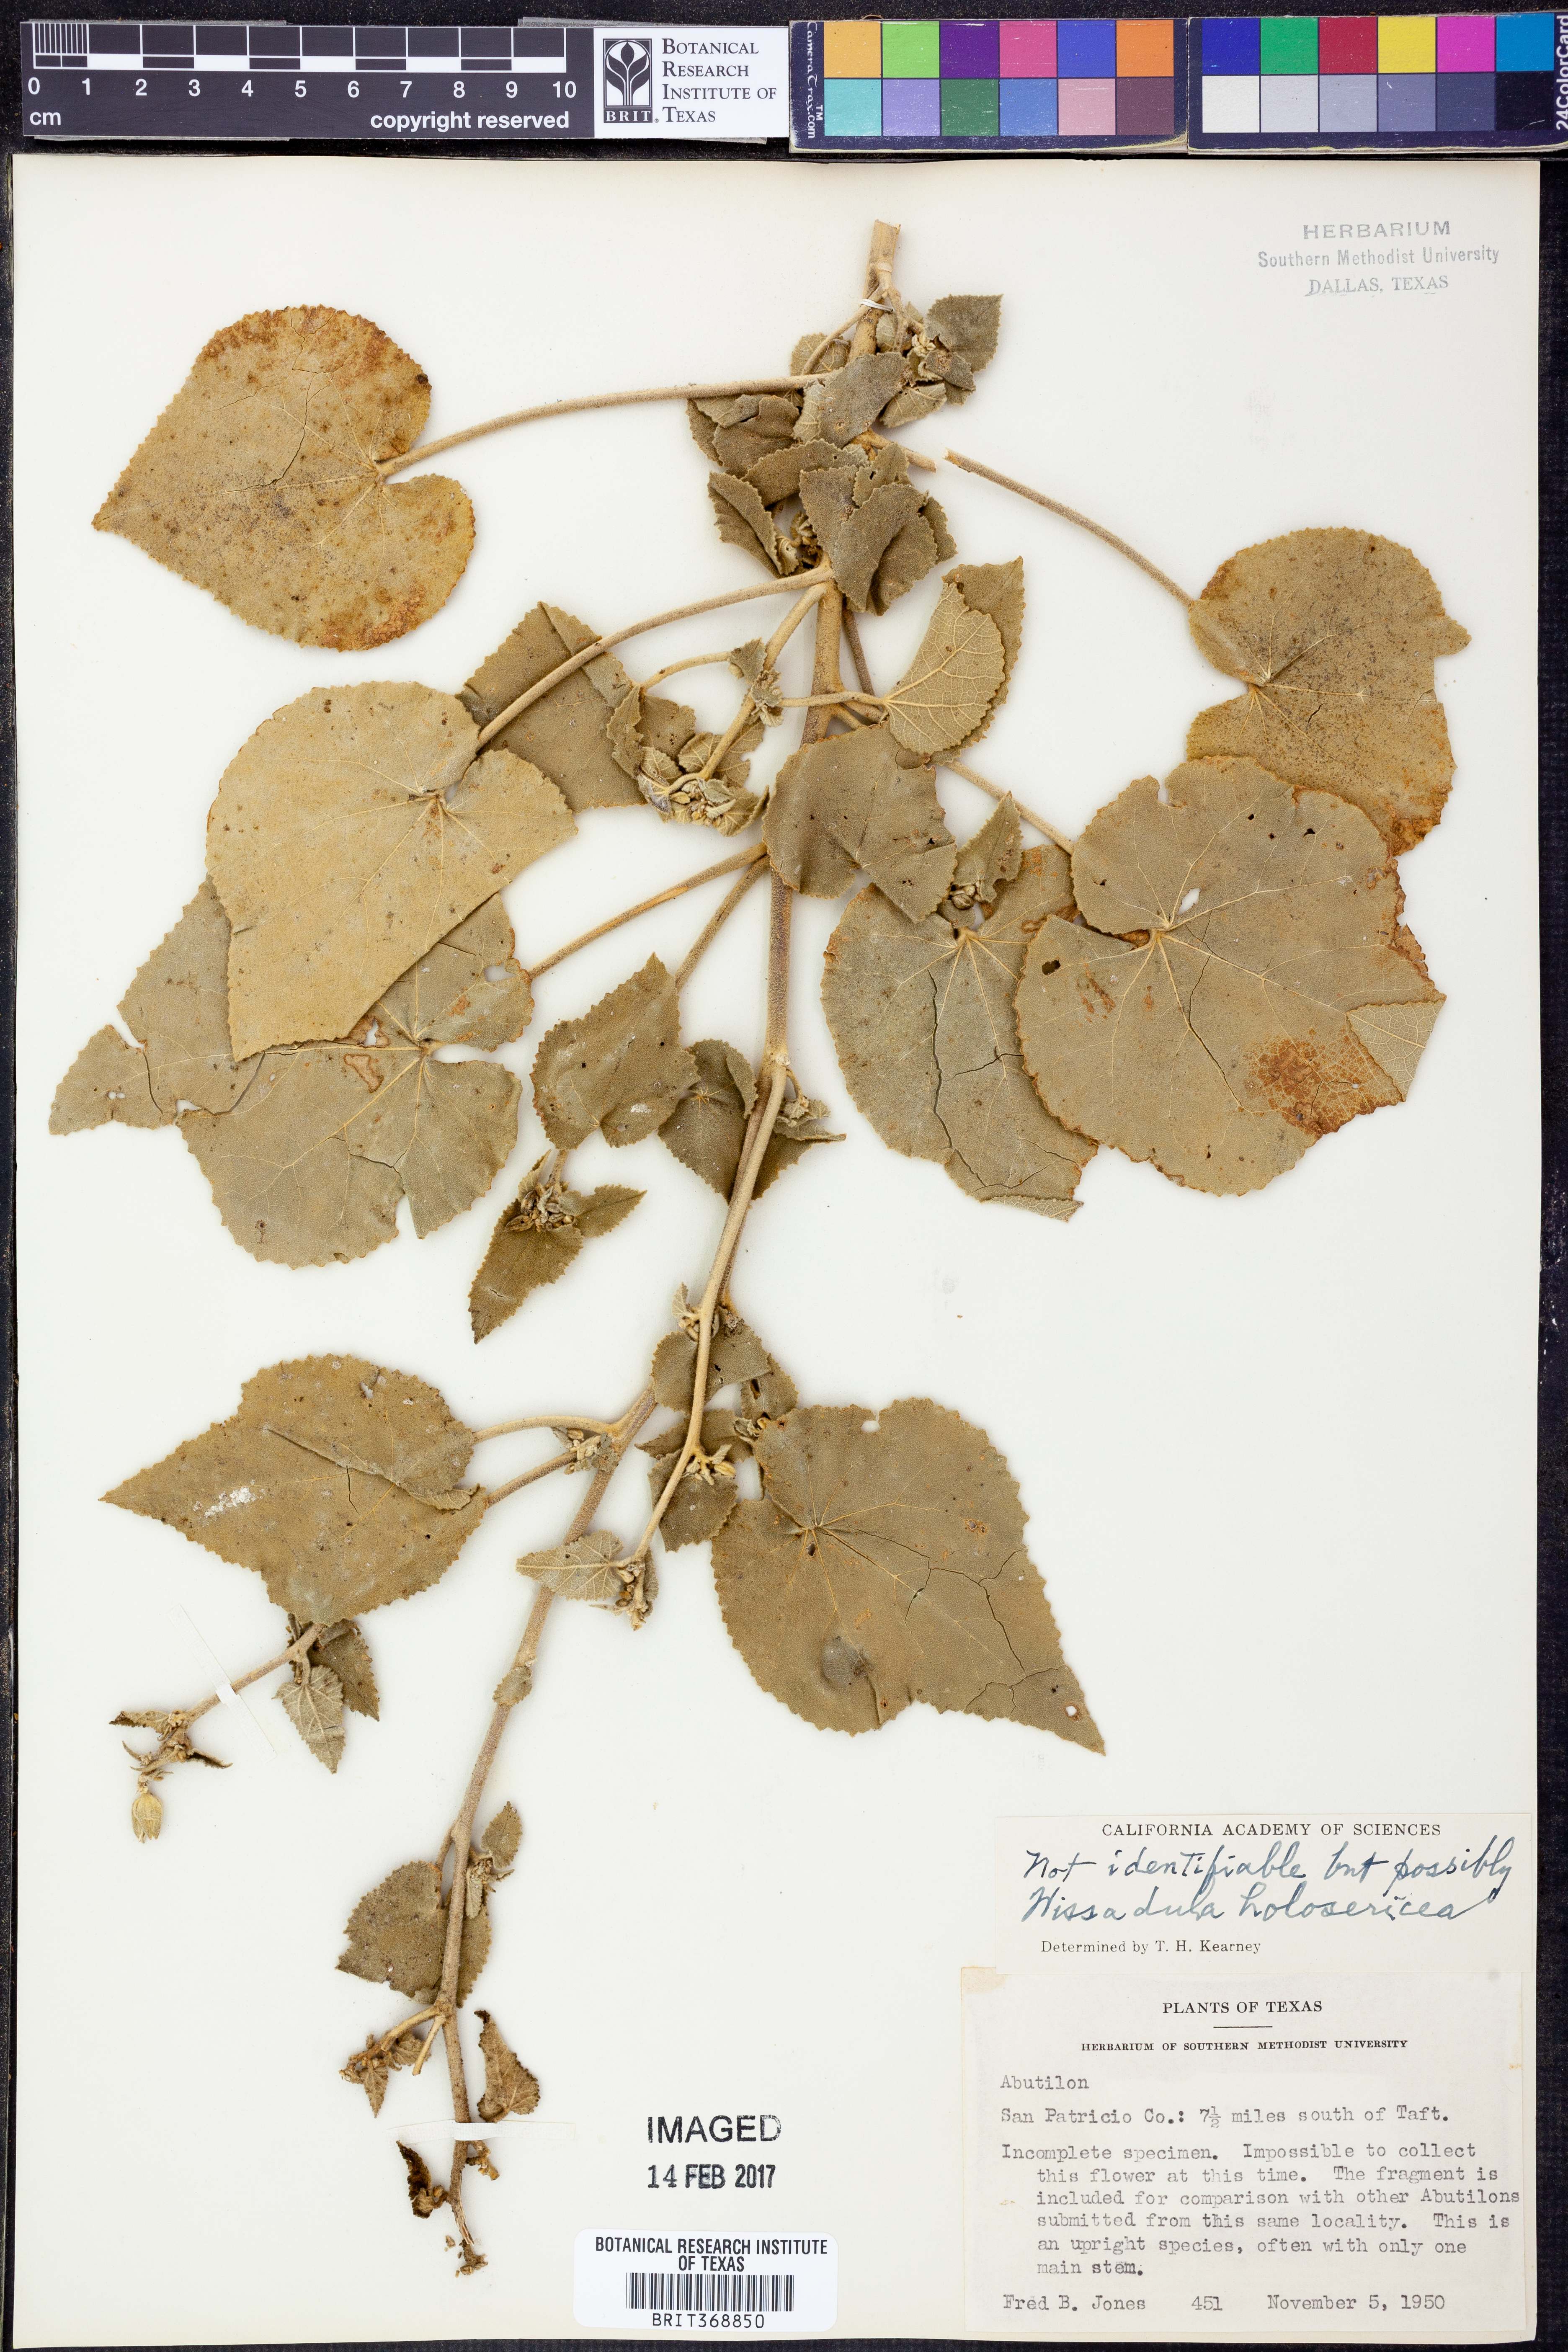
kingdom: Plantae
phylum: Tracheophyta
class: Magnoliopsida
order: Malvales
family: Malvaceae
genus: Allowissadula
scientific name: Allowissadula holosericea
